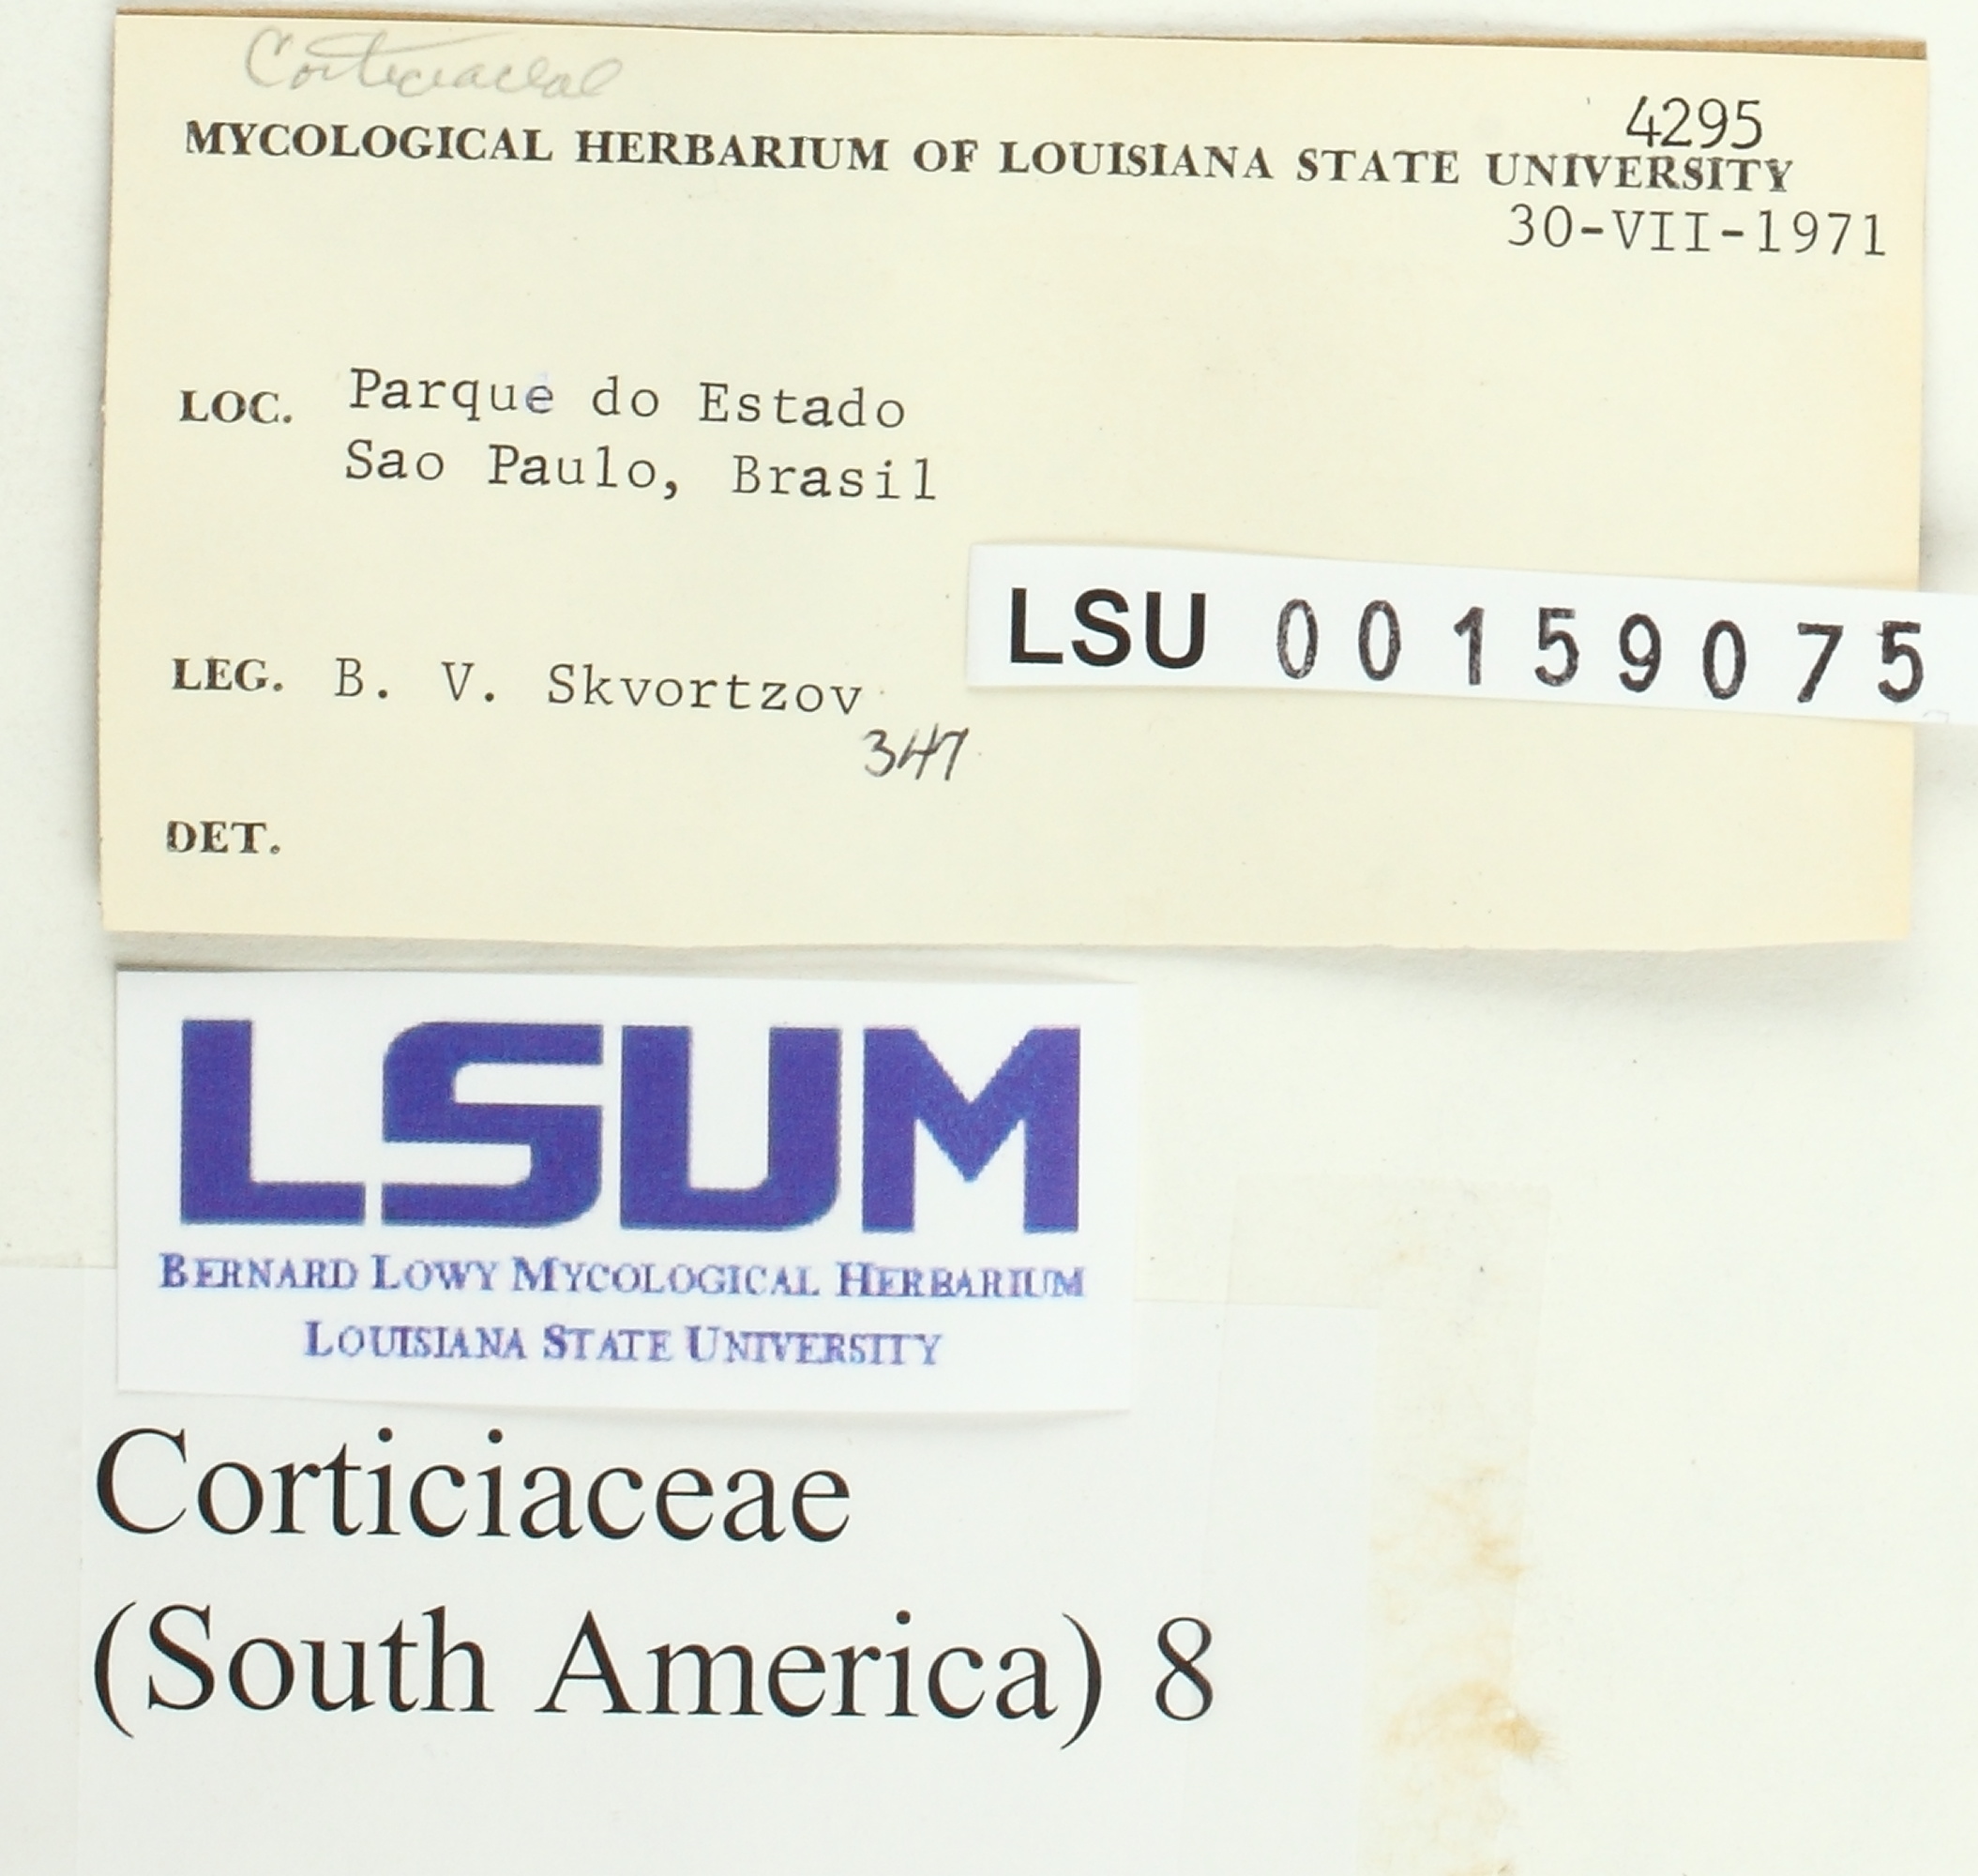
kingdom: Fungi
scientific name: Fungi
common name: Fungi
